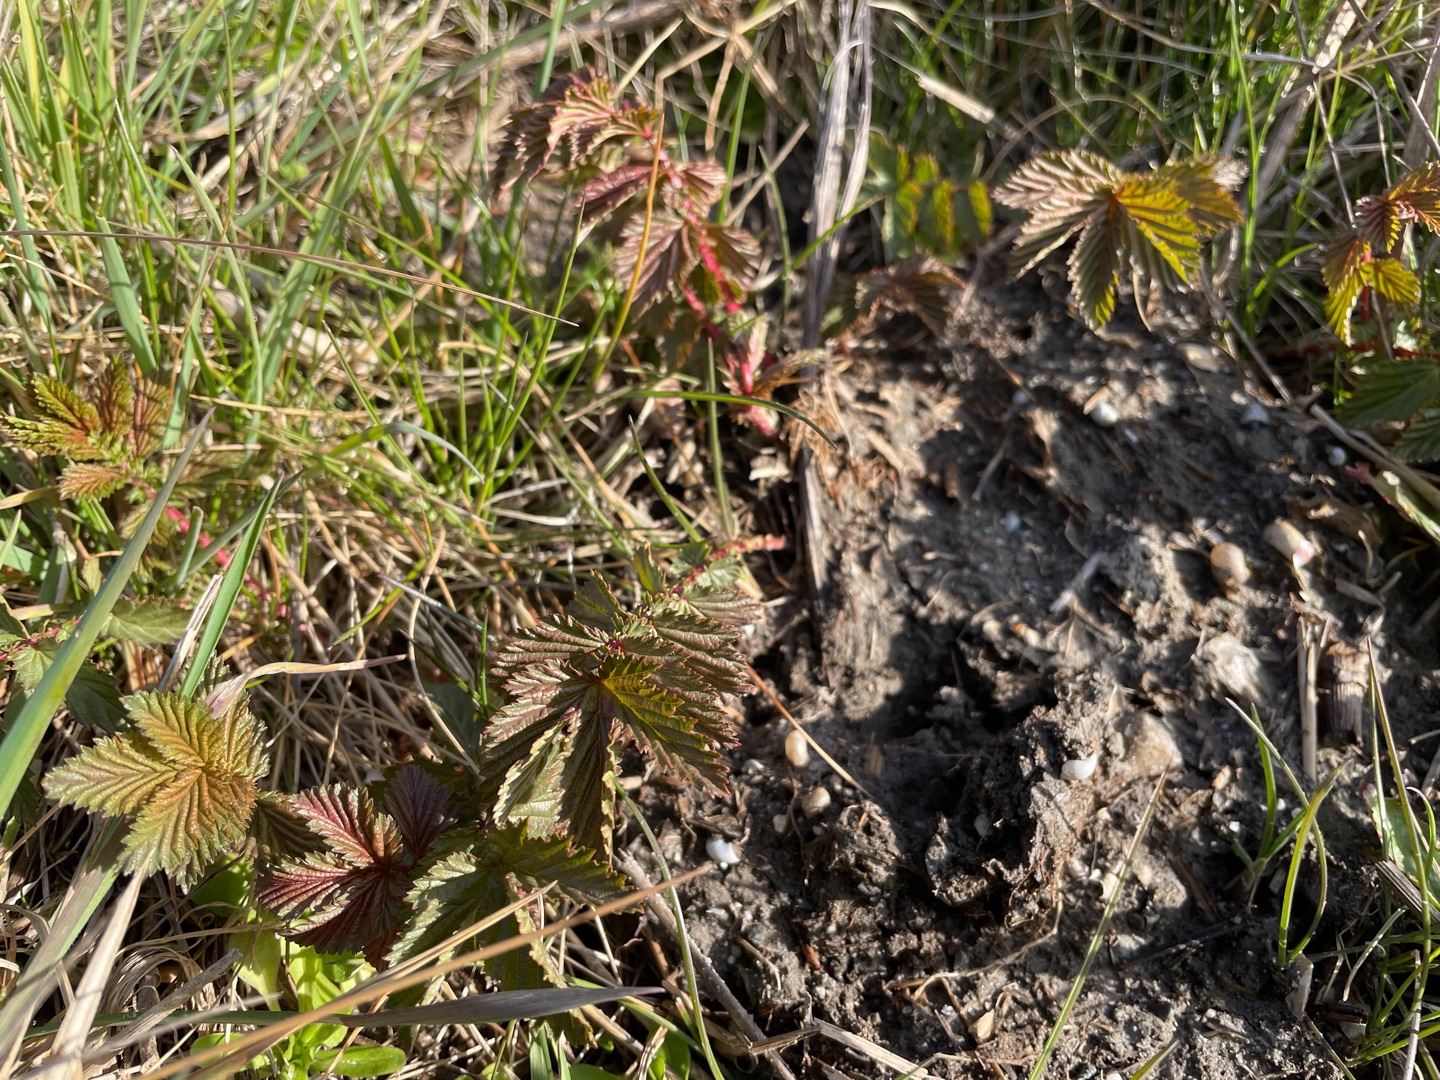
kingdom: Plantae
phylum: Tracheophyta
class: Magnoliopsida
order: Rosales
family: Rosaceae
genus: Filipendula
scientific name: Filipendula ulmaria
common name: Almindelig mjødurt
